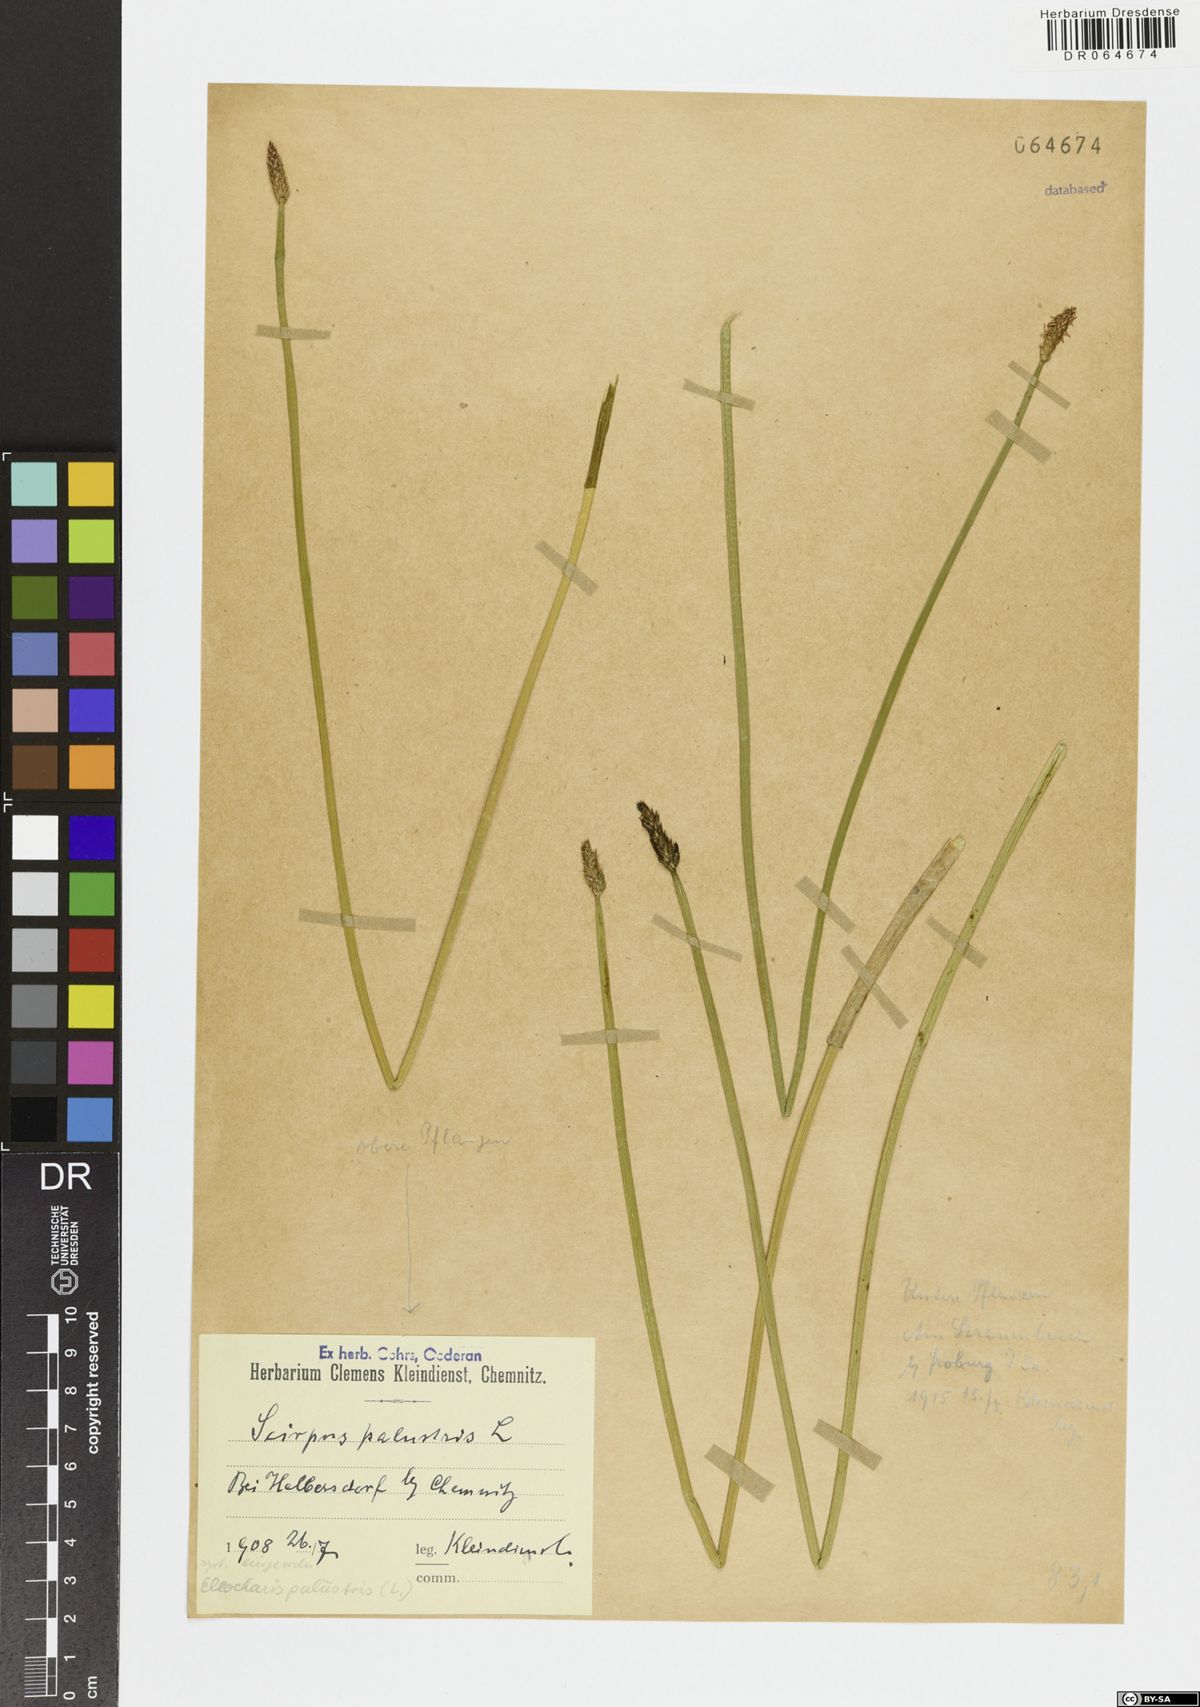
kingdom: Plantae
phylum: Tracheophyta
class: Liliopsida
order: Poales
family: Cyperaceae
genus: Eleocharis
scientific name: Eleocharis palustris
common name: Common spike-rush
